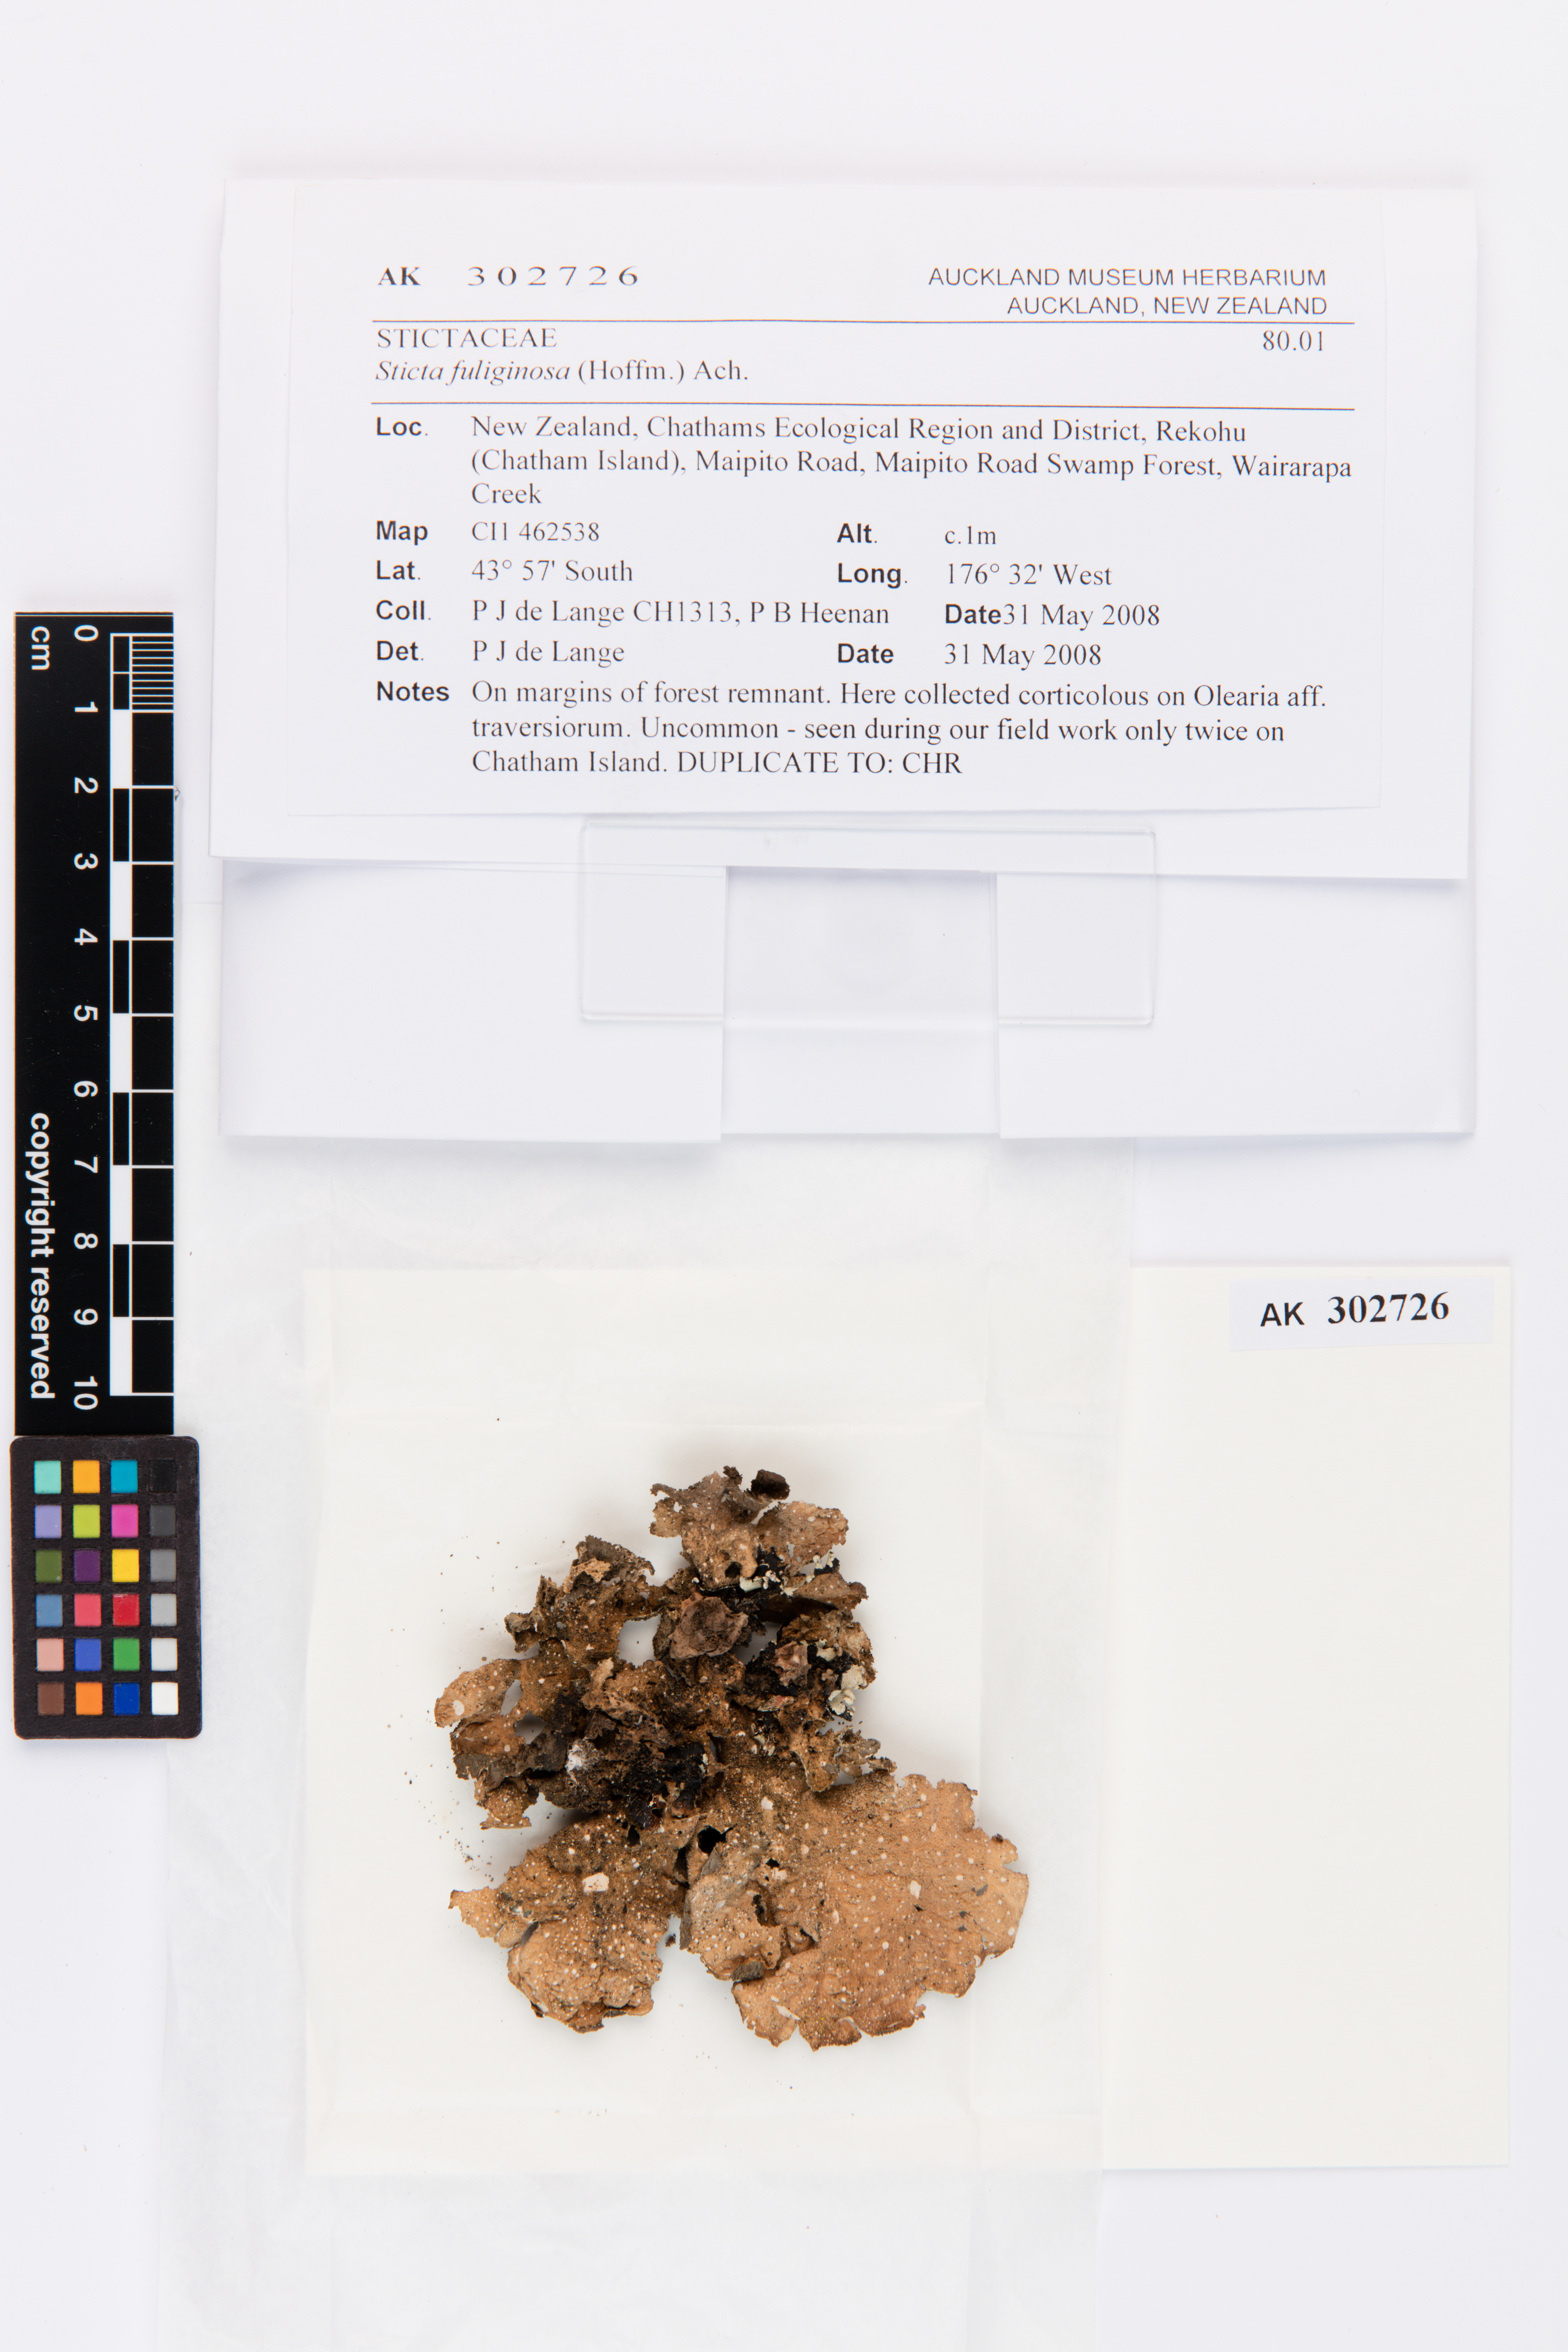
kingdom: Fungi
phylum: Ascomycota
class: Lecanoromycetes
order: Peltigerales
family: Lobariaceae
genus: Sticta
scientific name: Sticta fuliginosa
